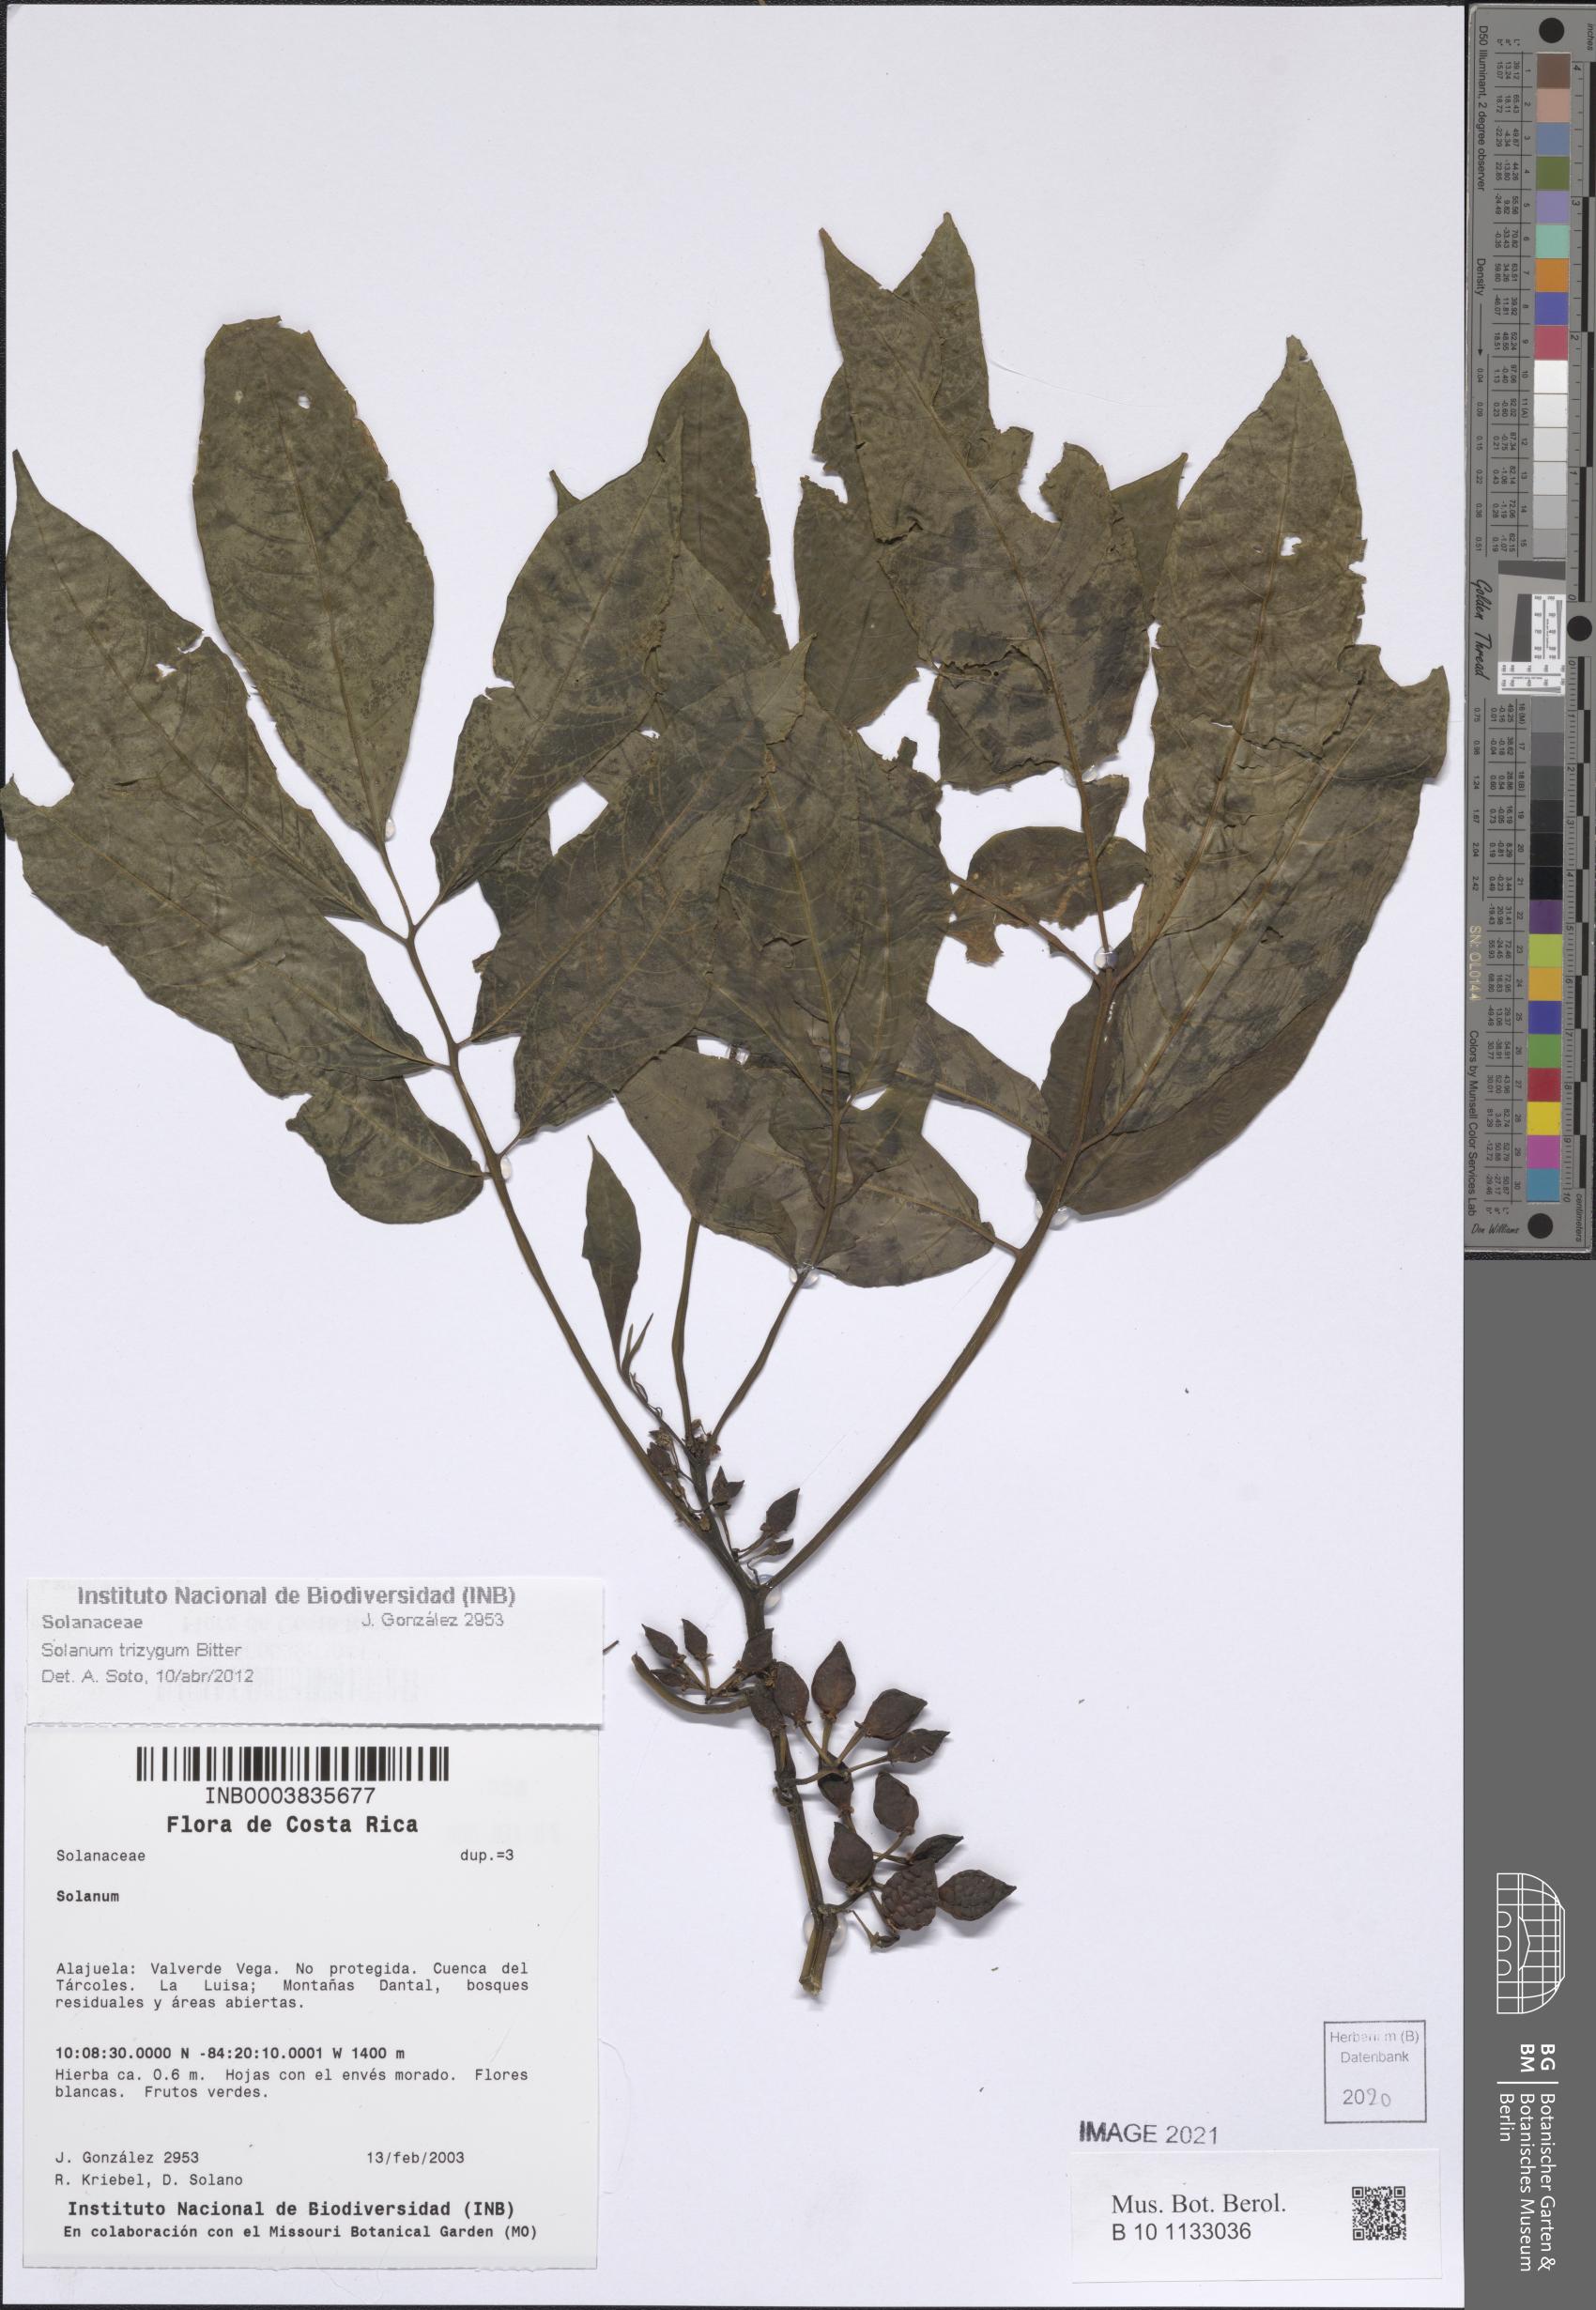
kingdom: Plantae
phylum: Tracheophyta
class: Magnoliopsida
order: Solanales
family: Solanaceae
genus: Solanum
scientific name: Solanum trizygum
